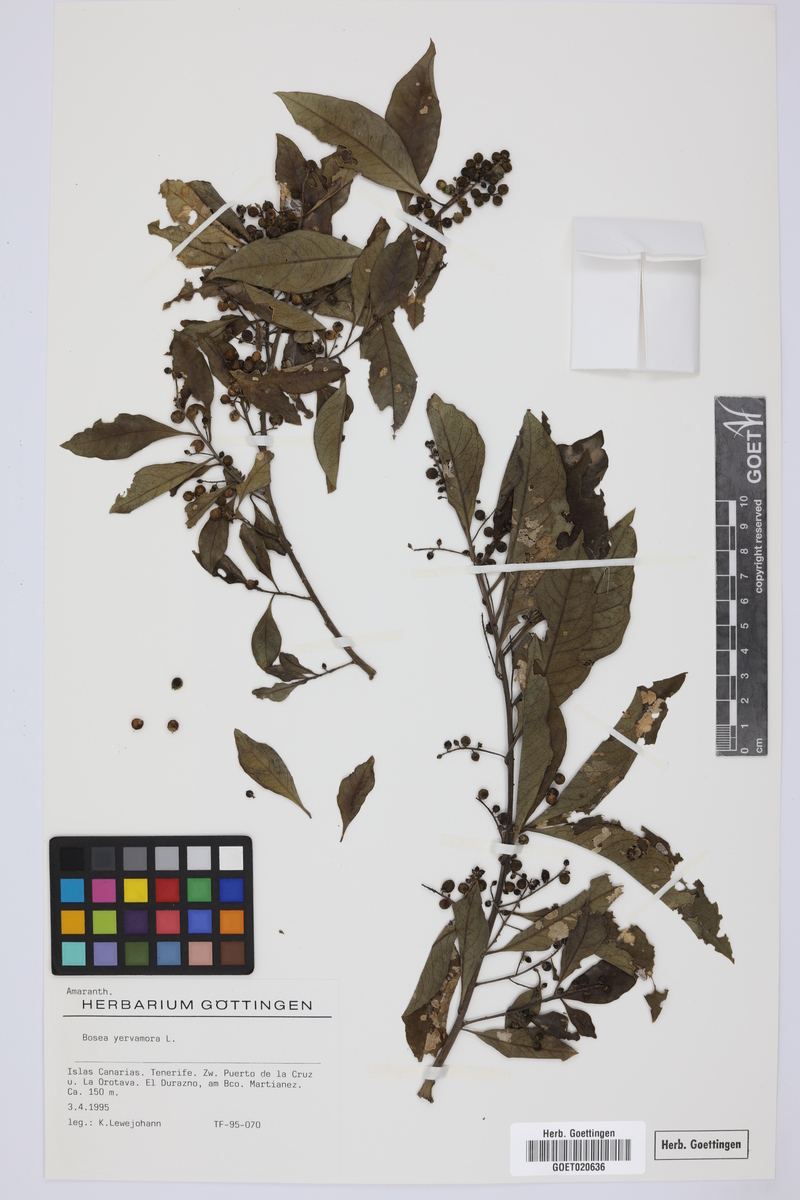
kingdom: Plantae
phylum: Tracheophyta
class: Magnoliopsida
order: Caryophyllales
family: Amaranthaceae
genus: Bosea
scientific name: Bosea yervamora
